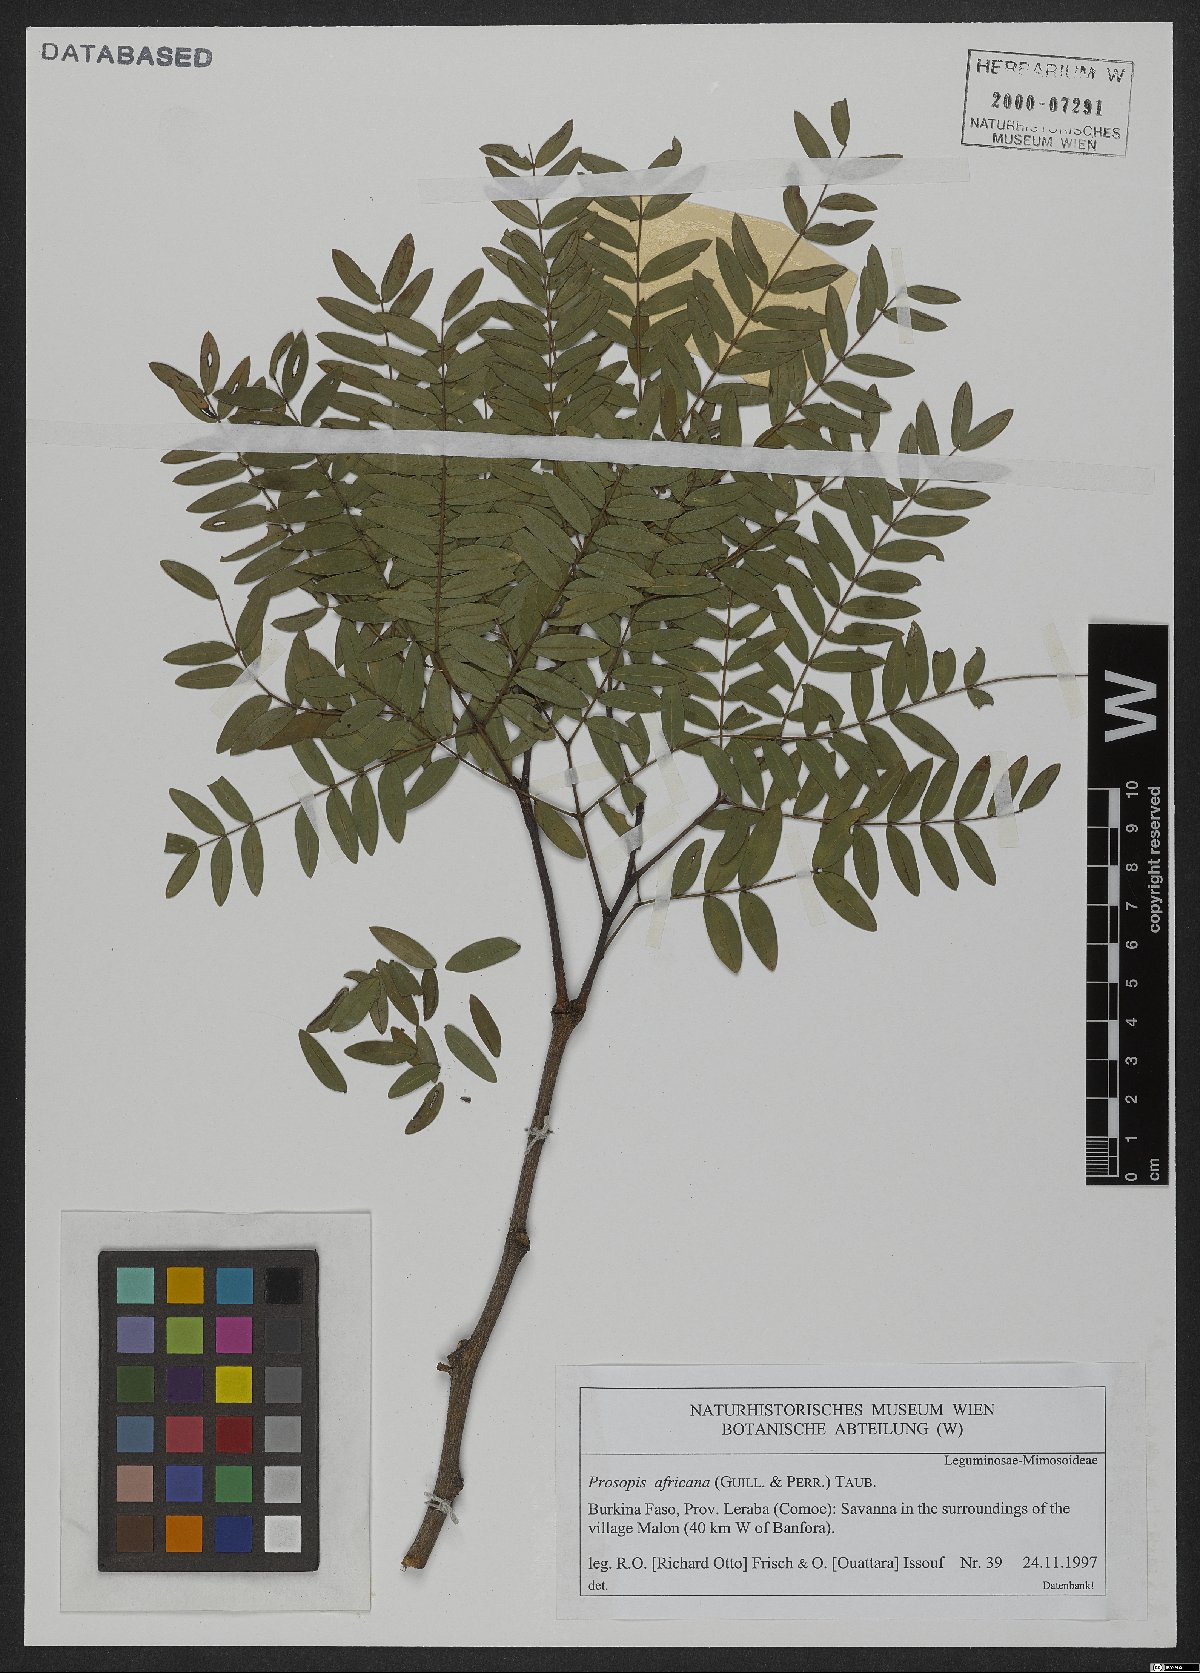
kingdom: Plantae
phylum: Tracheophyta
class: Magnoliopsida
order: Fabales
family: Fabaceae
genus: Prosopis
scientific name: Prosopis africana
